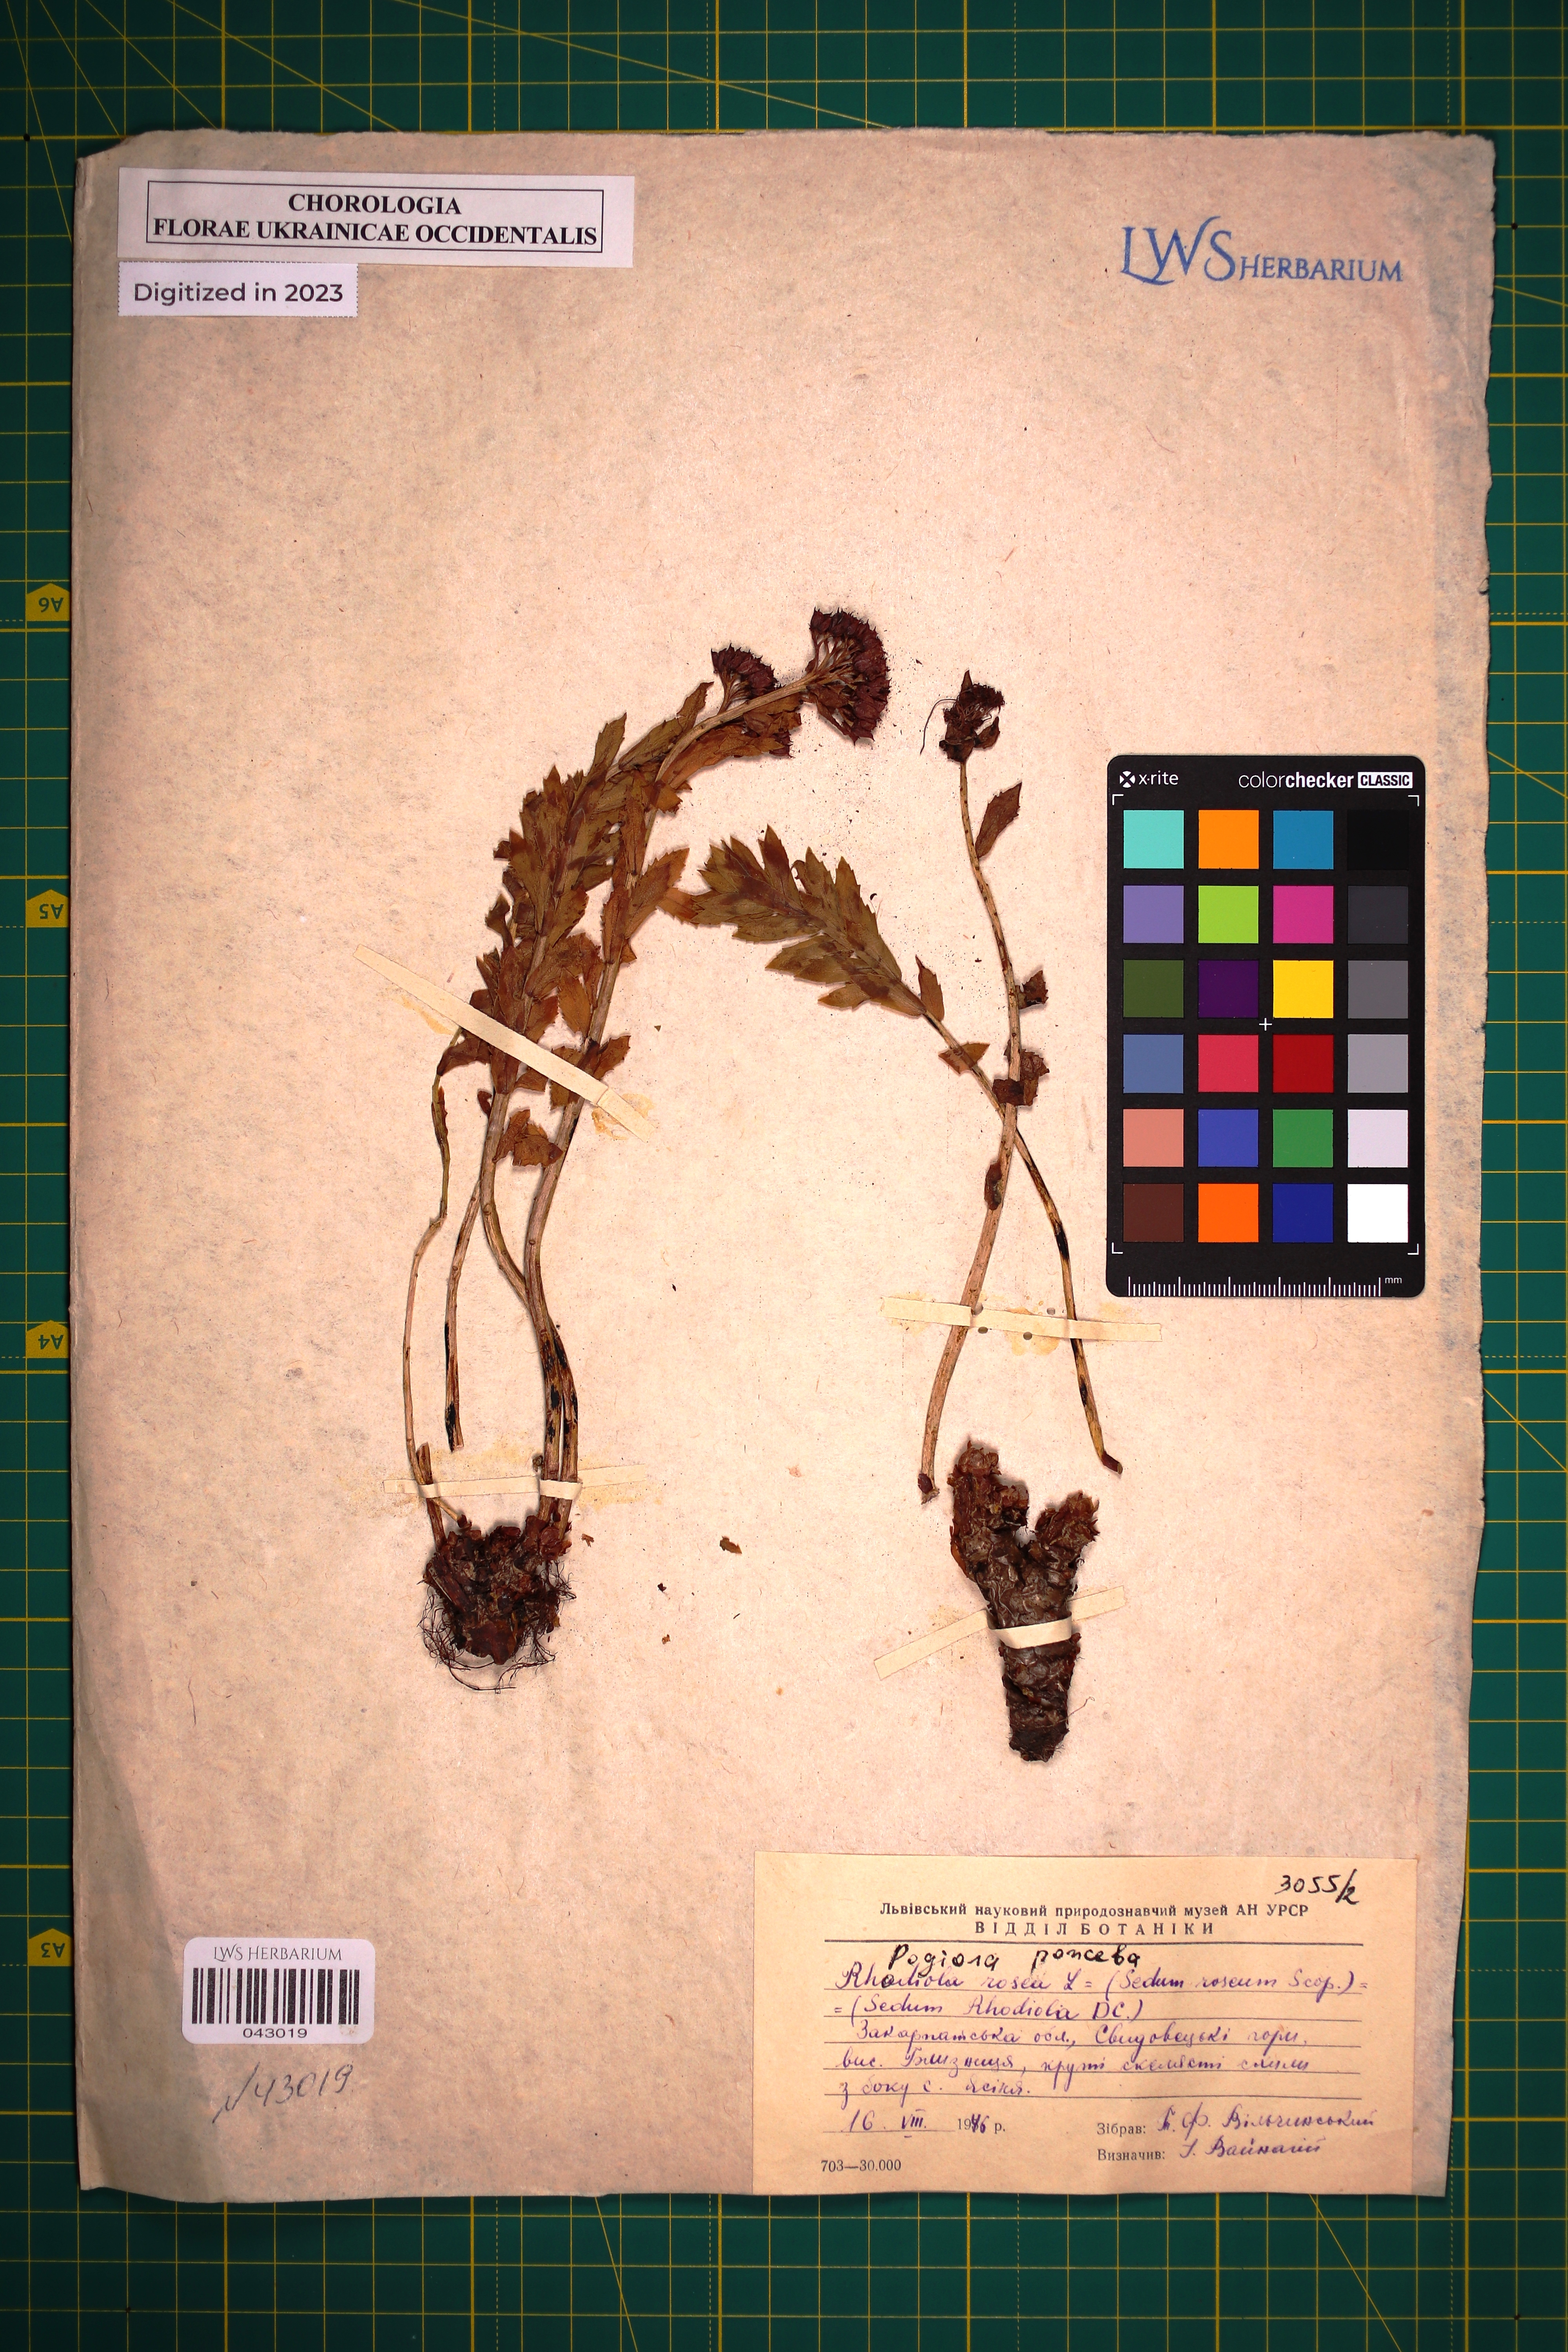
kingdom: Plantae
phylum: Tracheophyta
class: Magnoliopsida
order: Saxifragales
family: Crassulaceae
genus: Rhodiola
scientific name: Rhodiola rosea
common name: Roseroot
